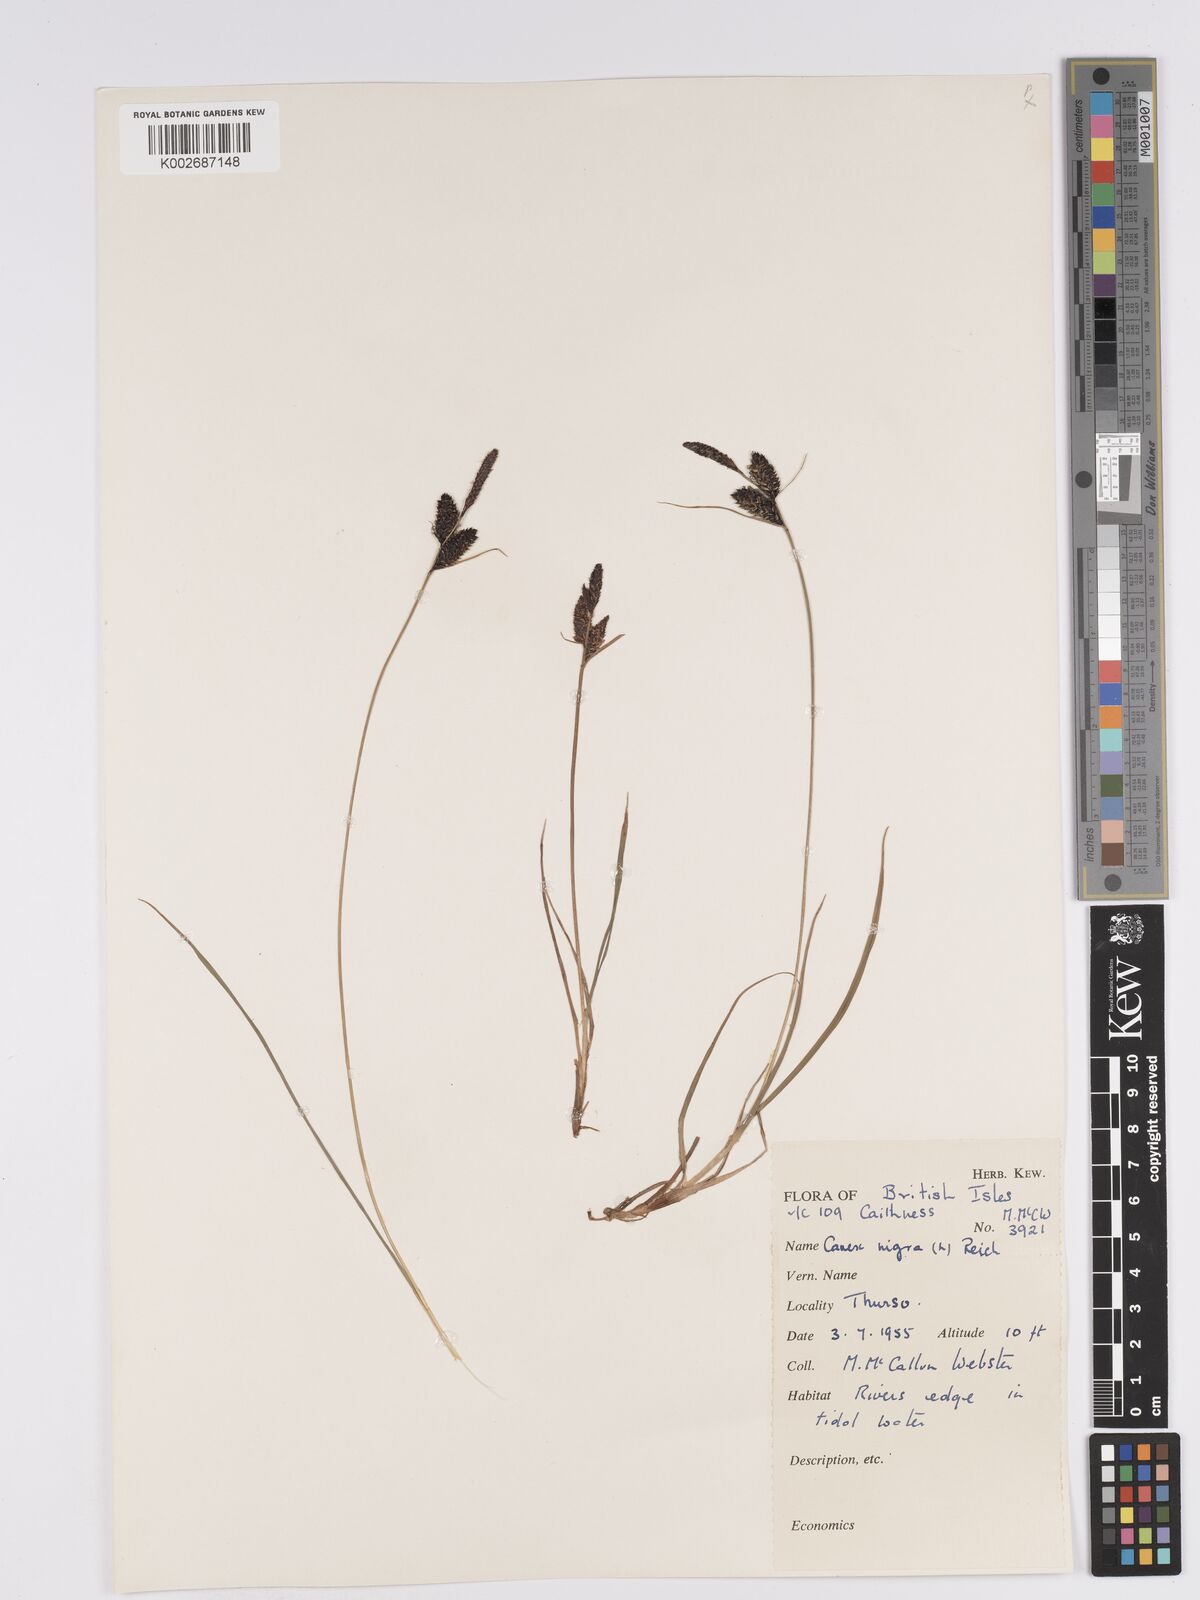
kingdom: Plantae
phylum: Tracheophyta
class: Liliopsida
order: Poales
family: Cyperaceae
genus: Carex
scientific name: Carex nigra
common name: Common sedge
